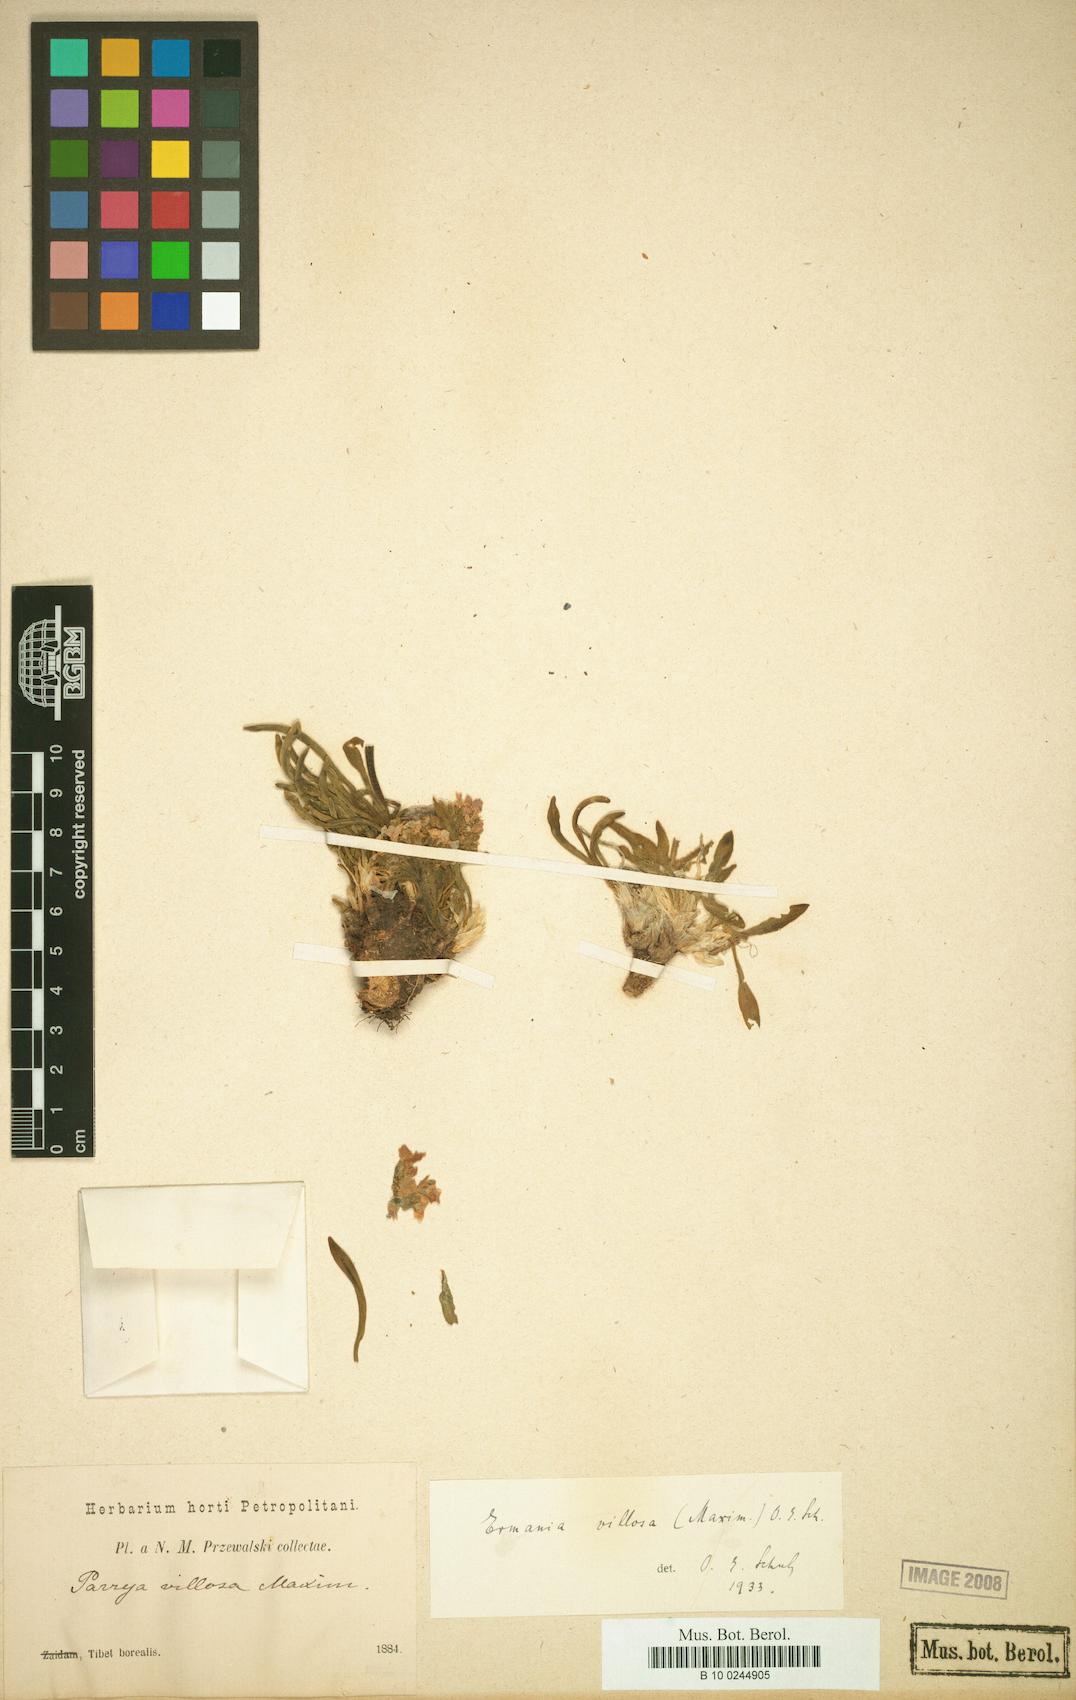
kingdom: Plantae
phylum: Tracheophyta
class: Magnoliopsida
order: Brassicales
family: Brassicaceae
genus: Solms-laubachia
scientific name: Solms-laubachia villosa
